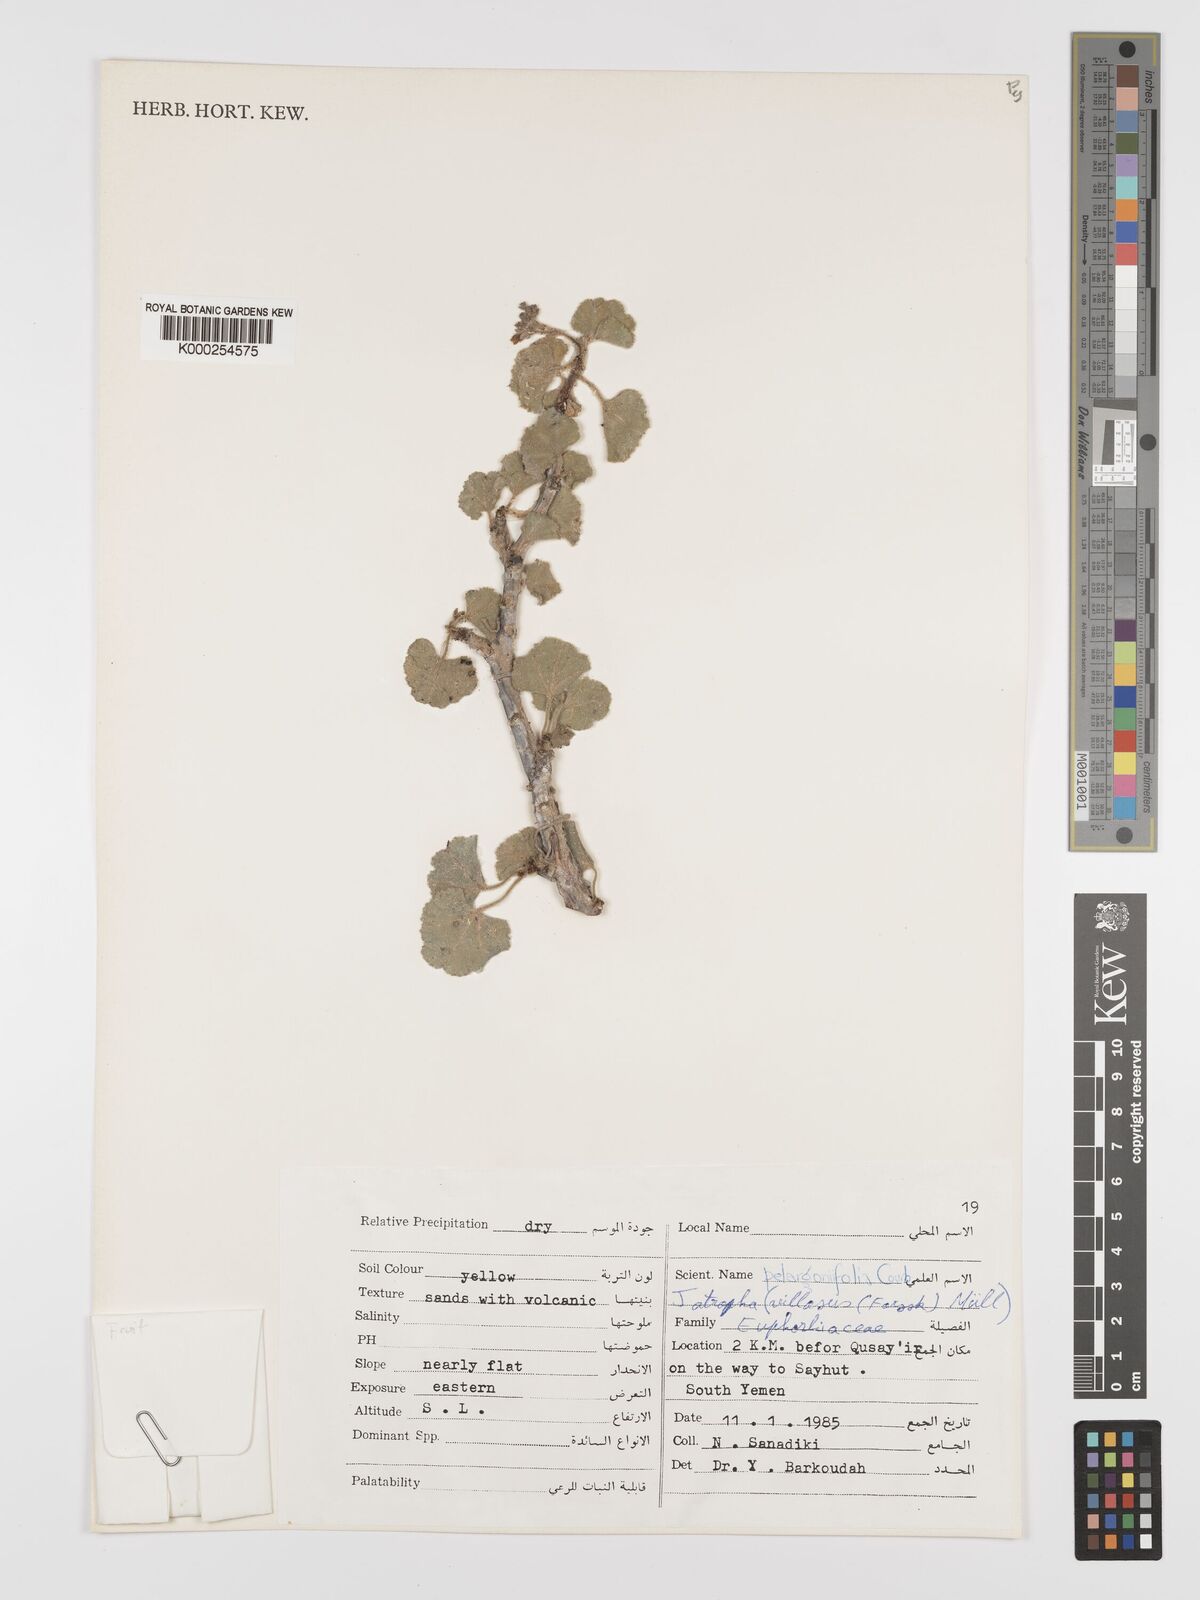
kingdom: Plantae
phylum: Tracheophyta
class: Magnoliopsida
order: Malpighiales
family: Euphorbiaceae
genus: Jatropha
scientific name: Jatropha pelargoniifolia
